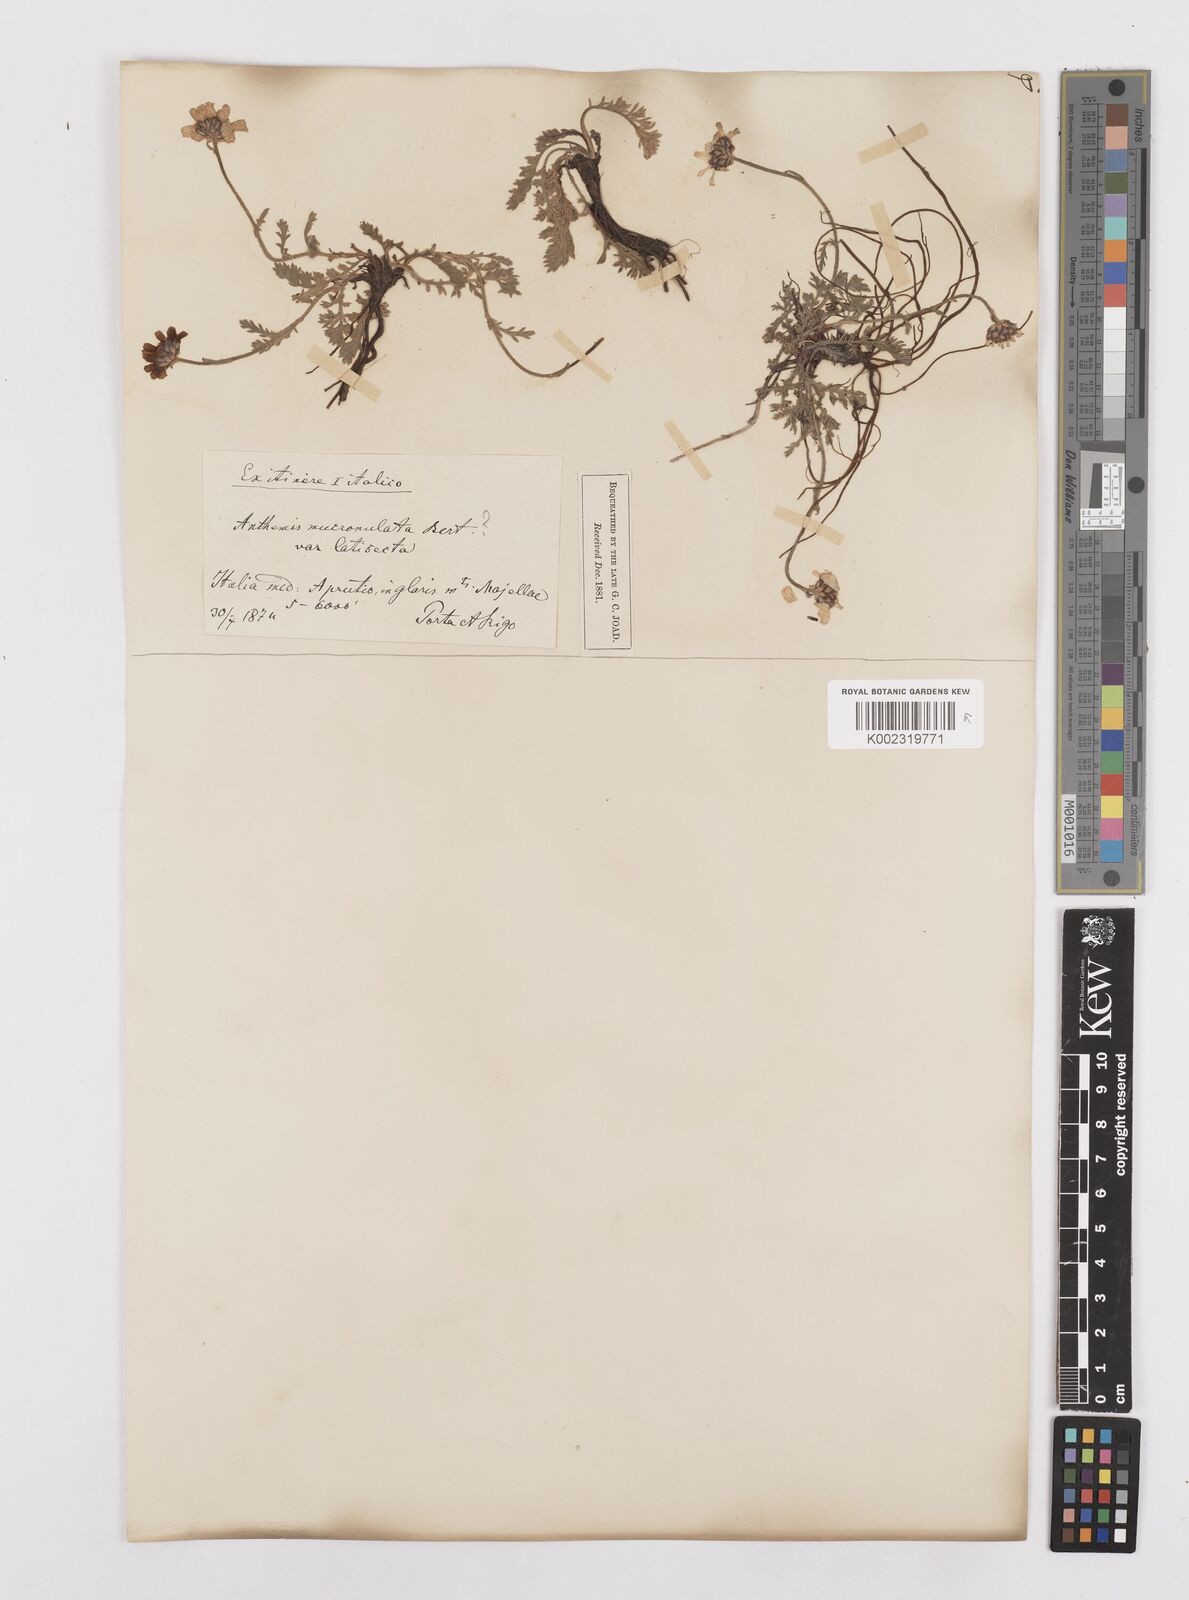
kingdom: Plantae
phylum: Tracheophyta
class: Magnoliopsida
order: Asterales
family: Asteraceae
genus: Achillea
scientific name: Achillea barrelieri
